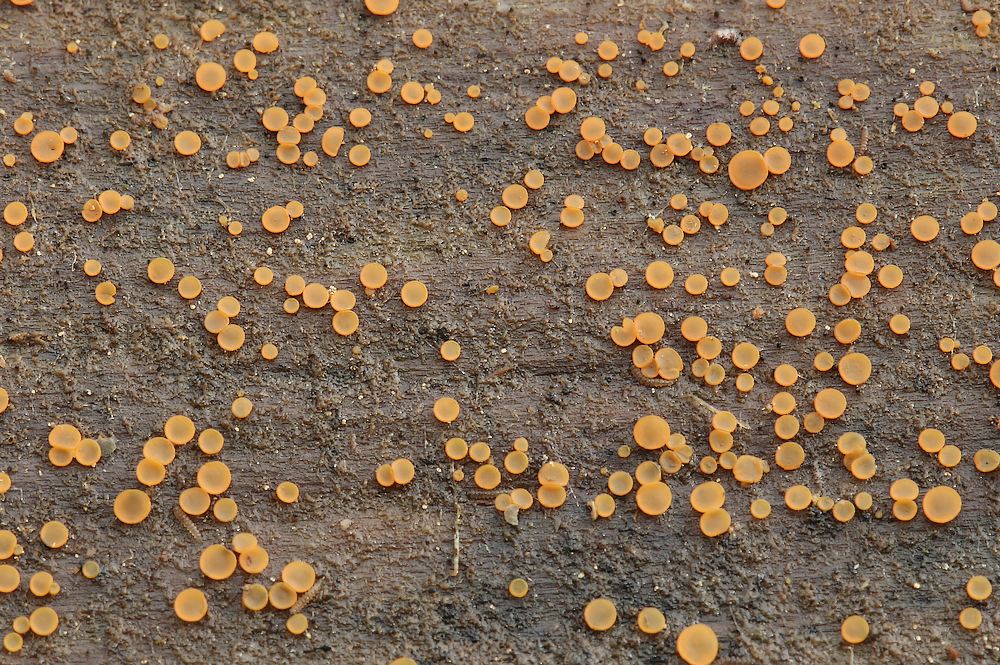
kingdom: Fungi
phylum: Ascomycota
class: Orbiliomycetes
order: Orbiliales
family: Orbiliaceae
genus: Orbilia
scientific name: Orbilia
